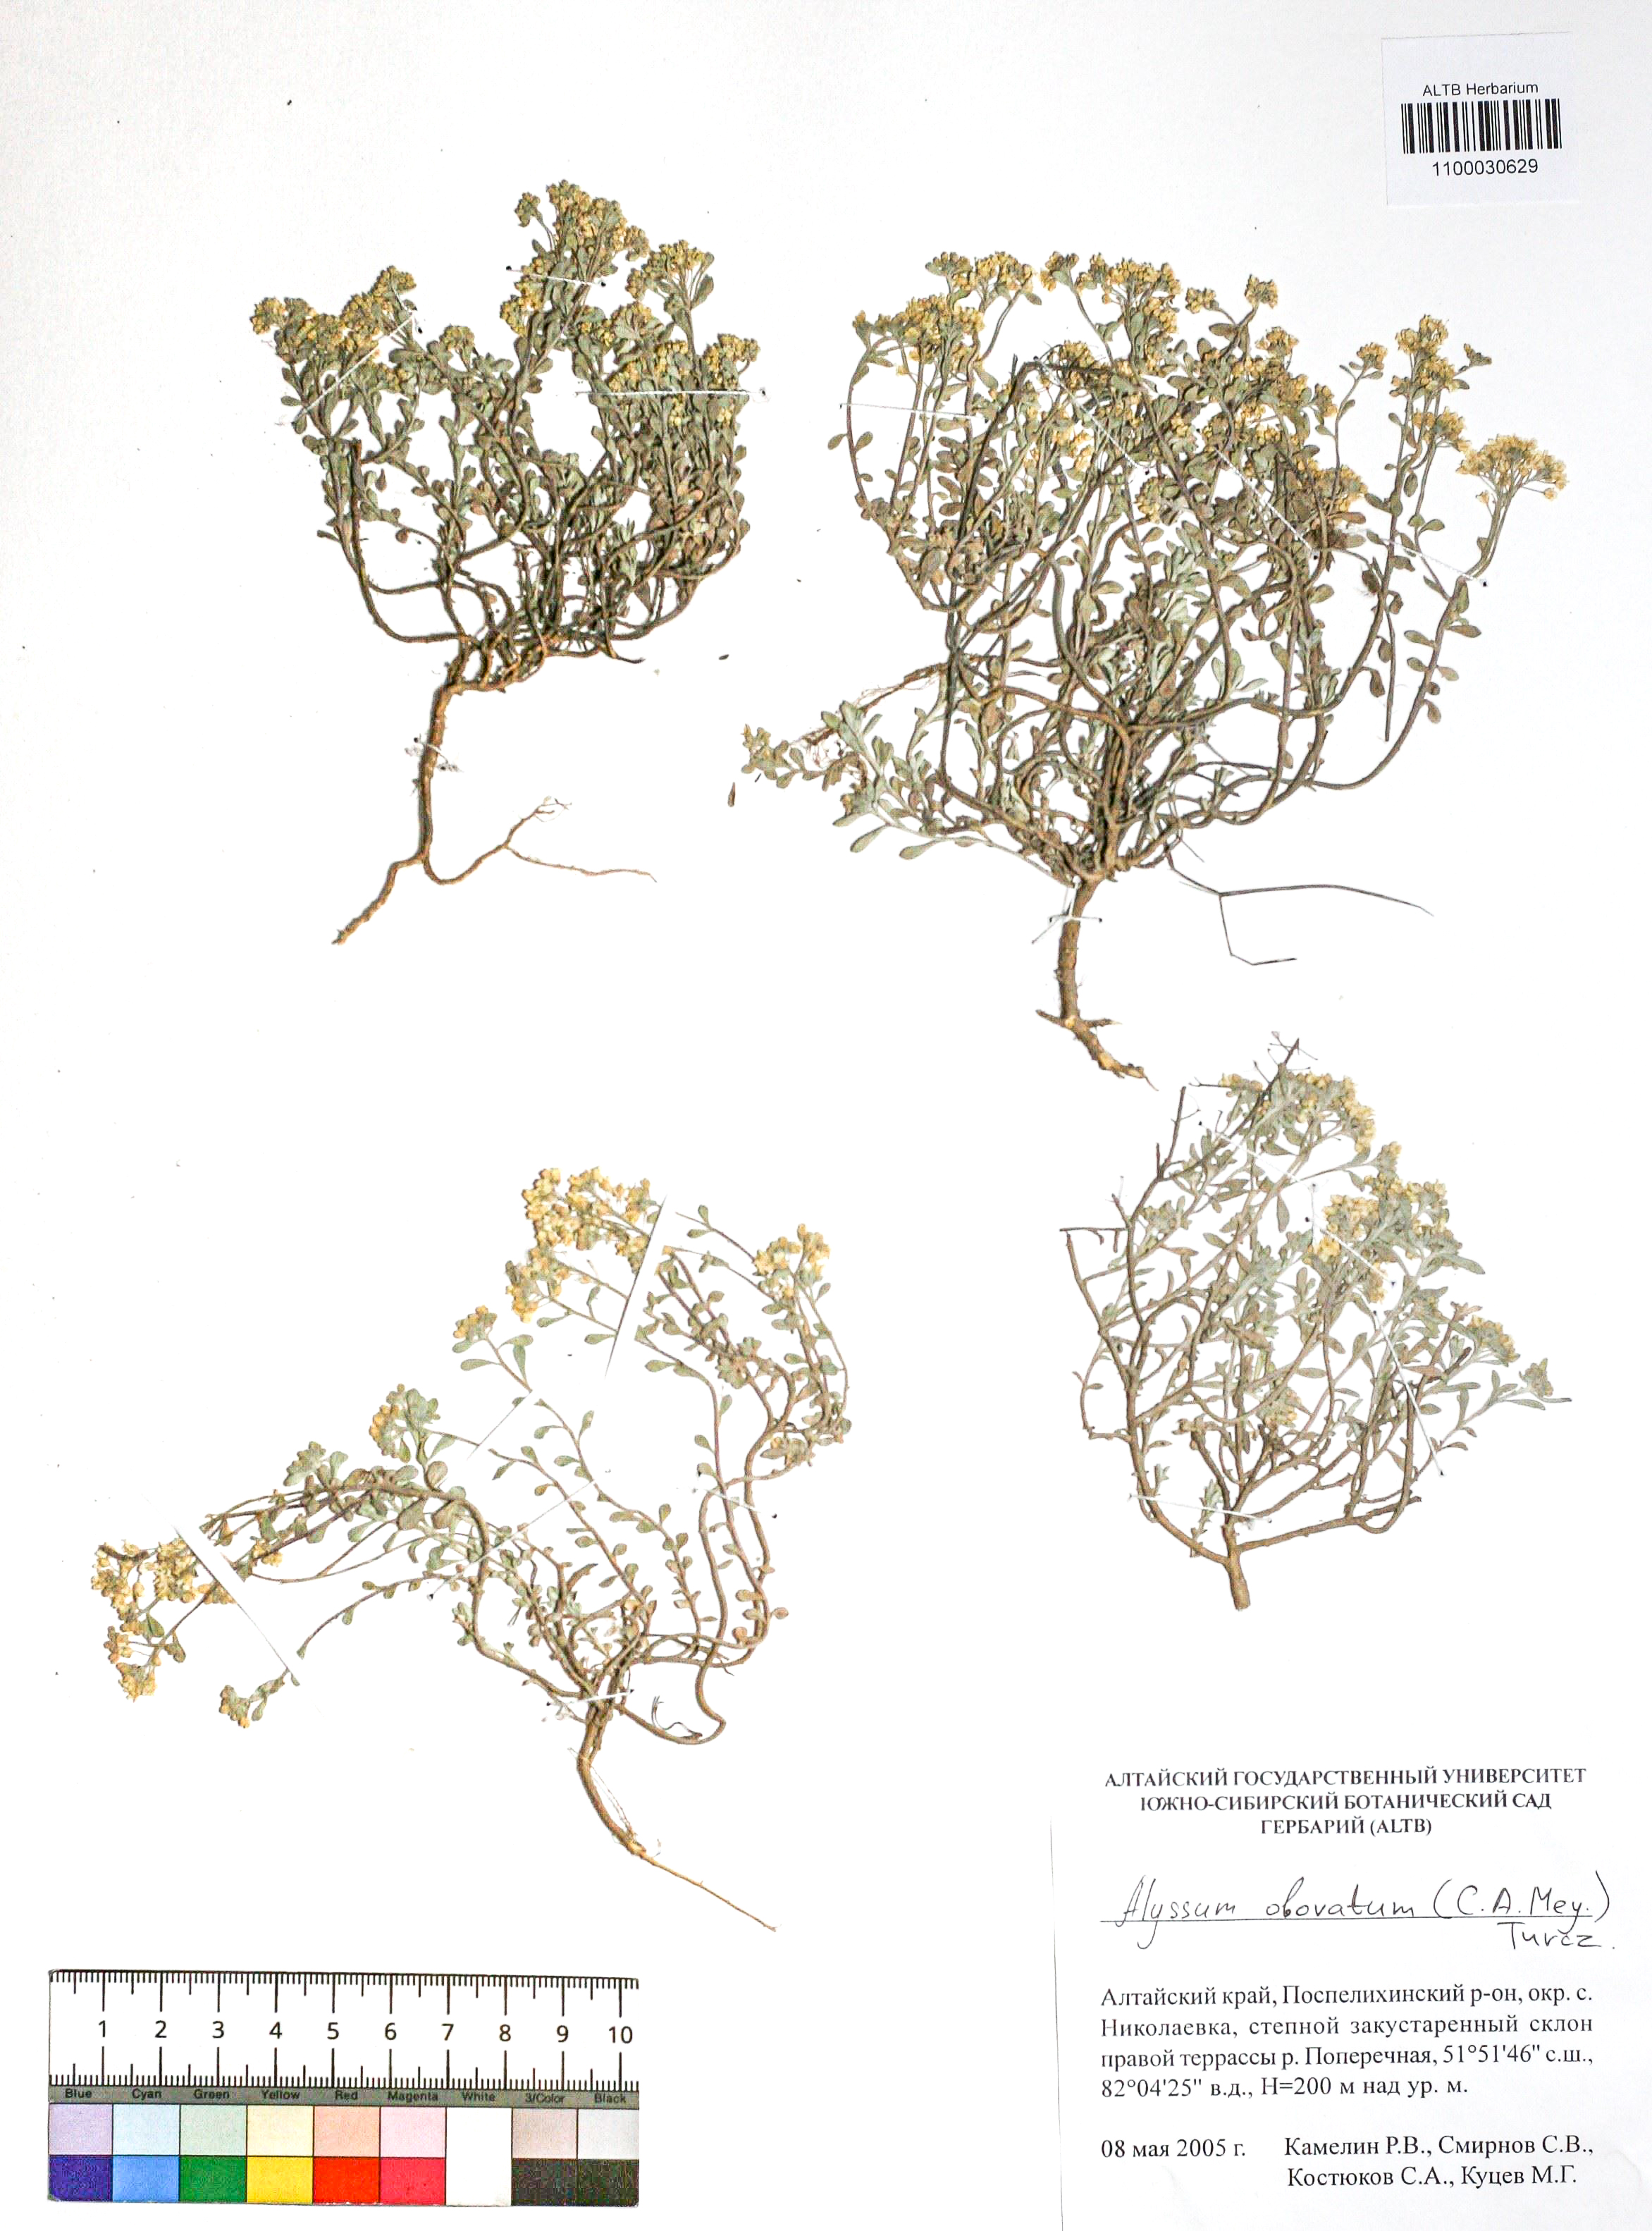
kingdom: Plantae
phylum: Tracheophyta
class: Magnoliopsida
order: Brassicales
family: Brassicaceae
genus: Odontarrhena
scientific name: Odontarrhena obovata
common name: American alyssum
